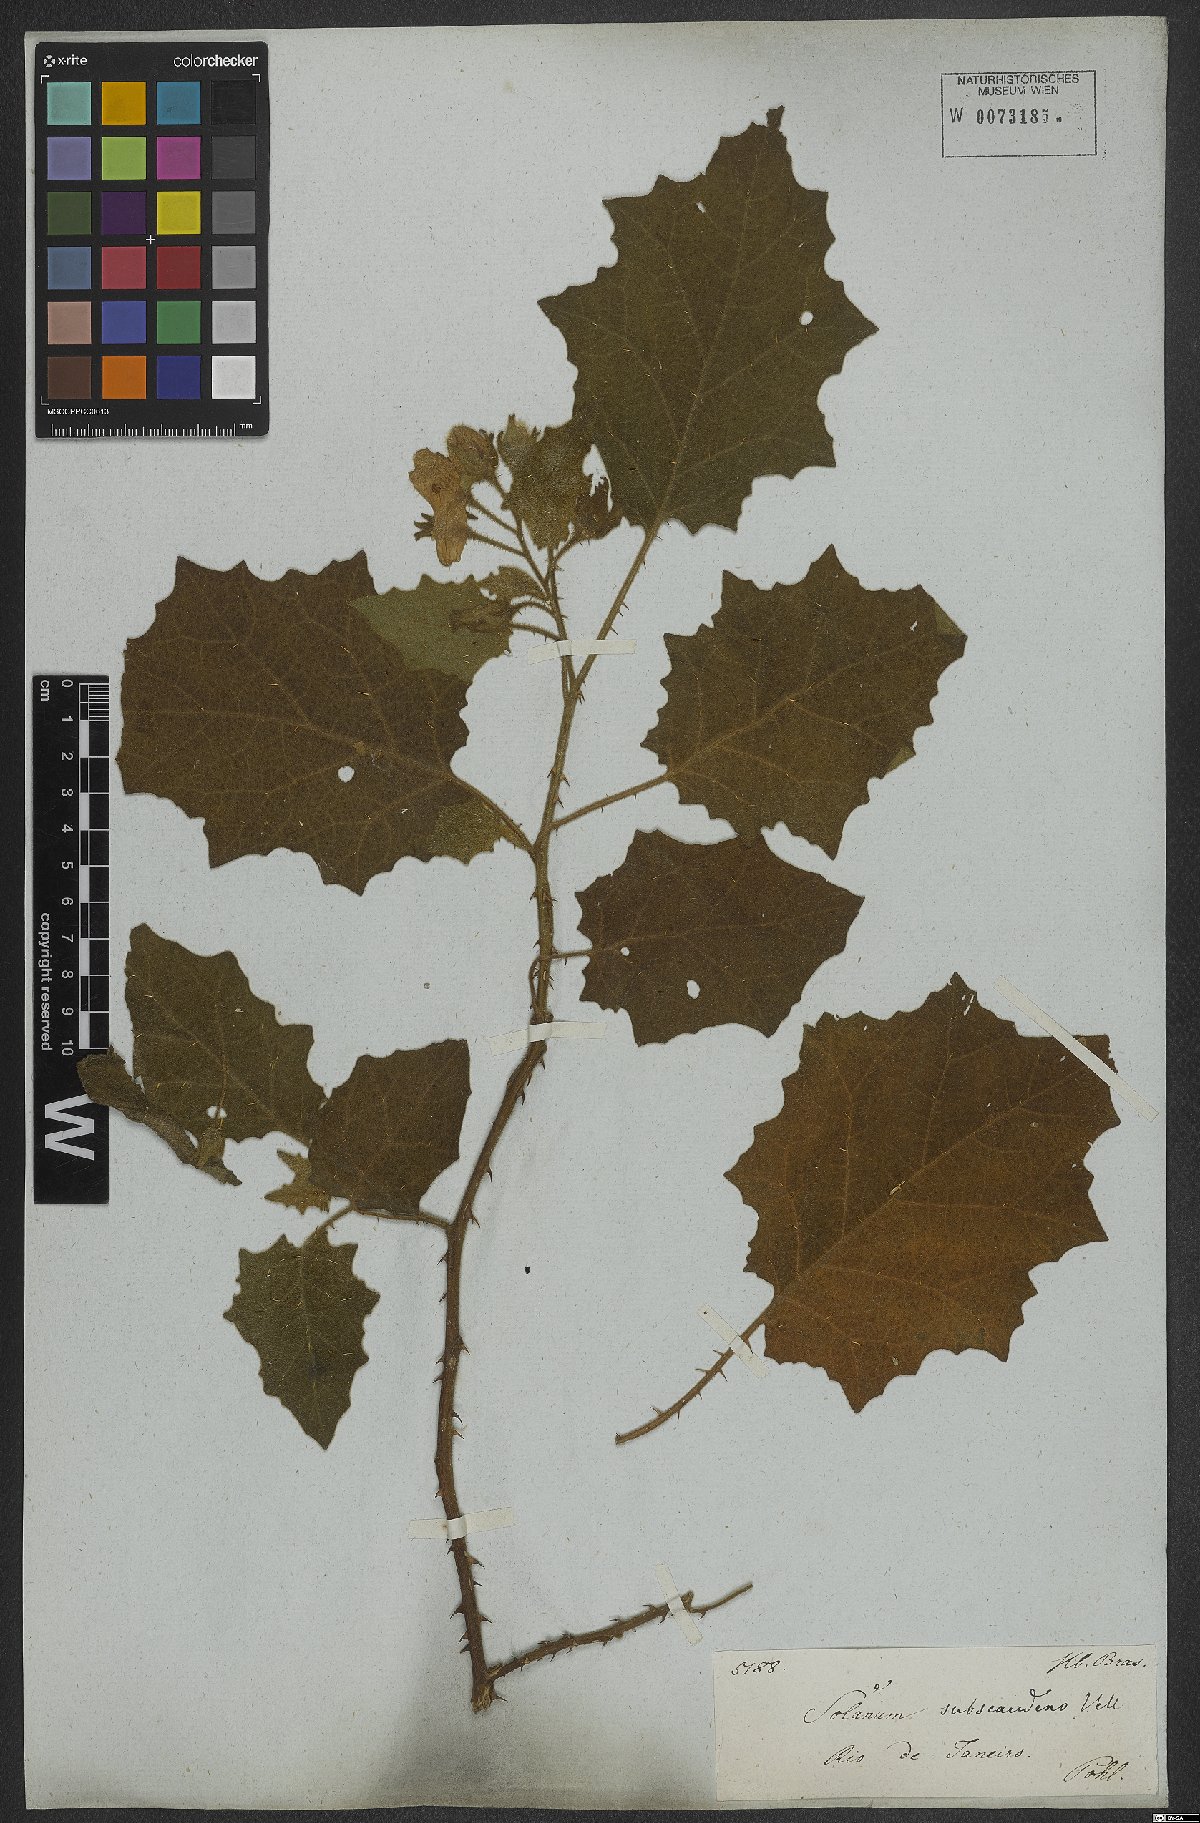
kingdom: Plantae
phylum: Tracheophyta
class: Magnoliopsida
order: Solanales
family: Solanaceae
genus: Solanum
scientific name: Solanum sublentum
